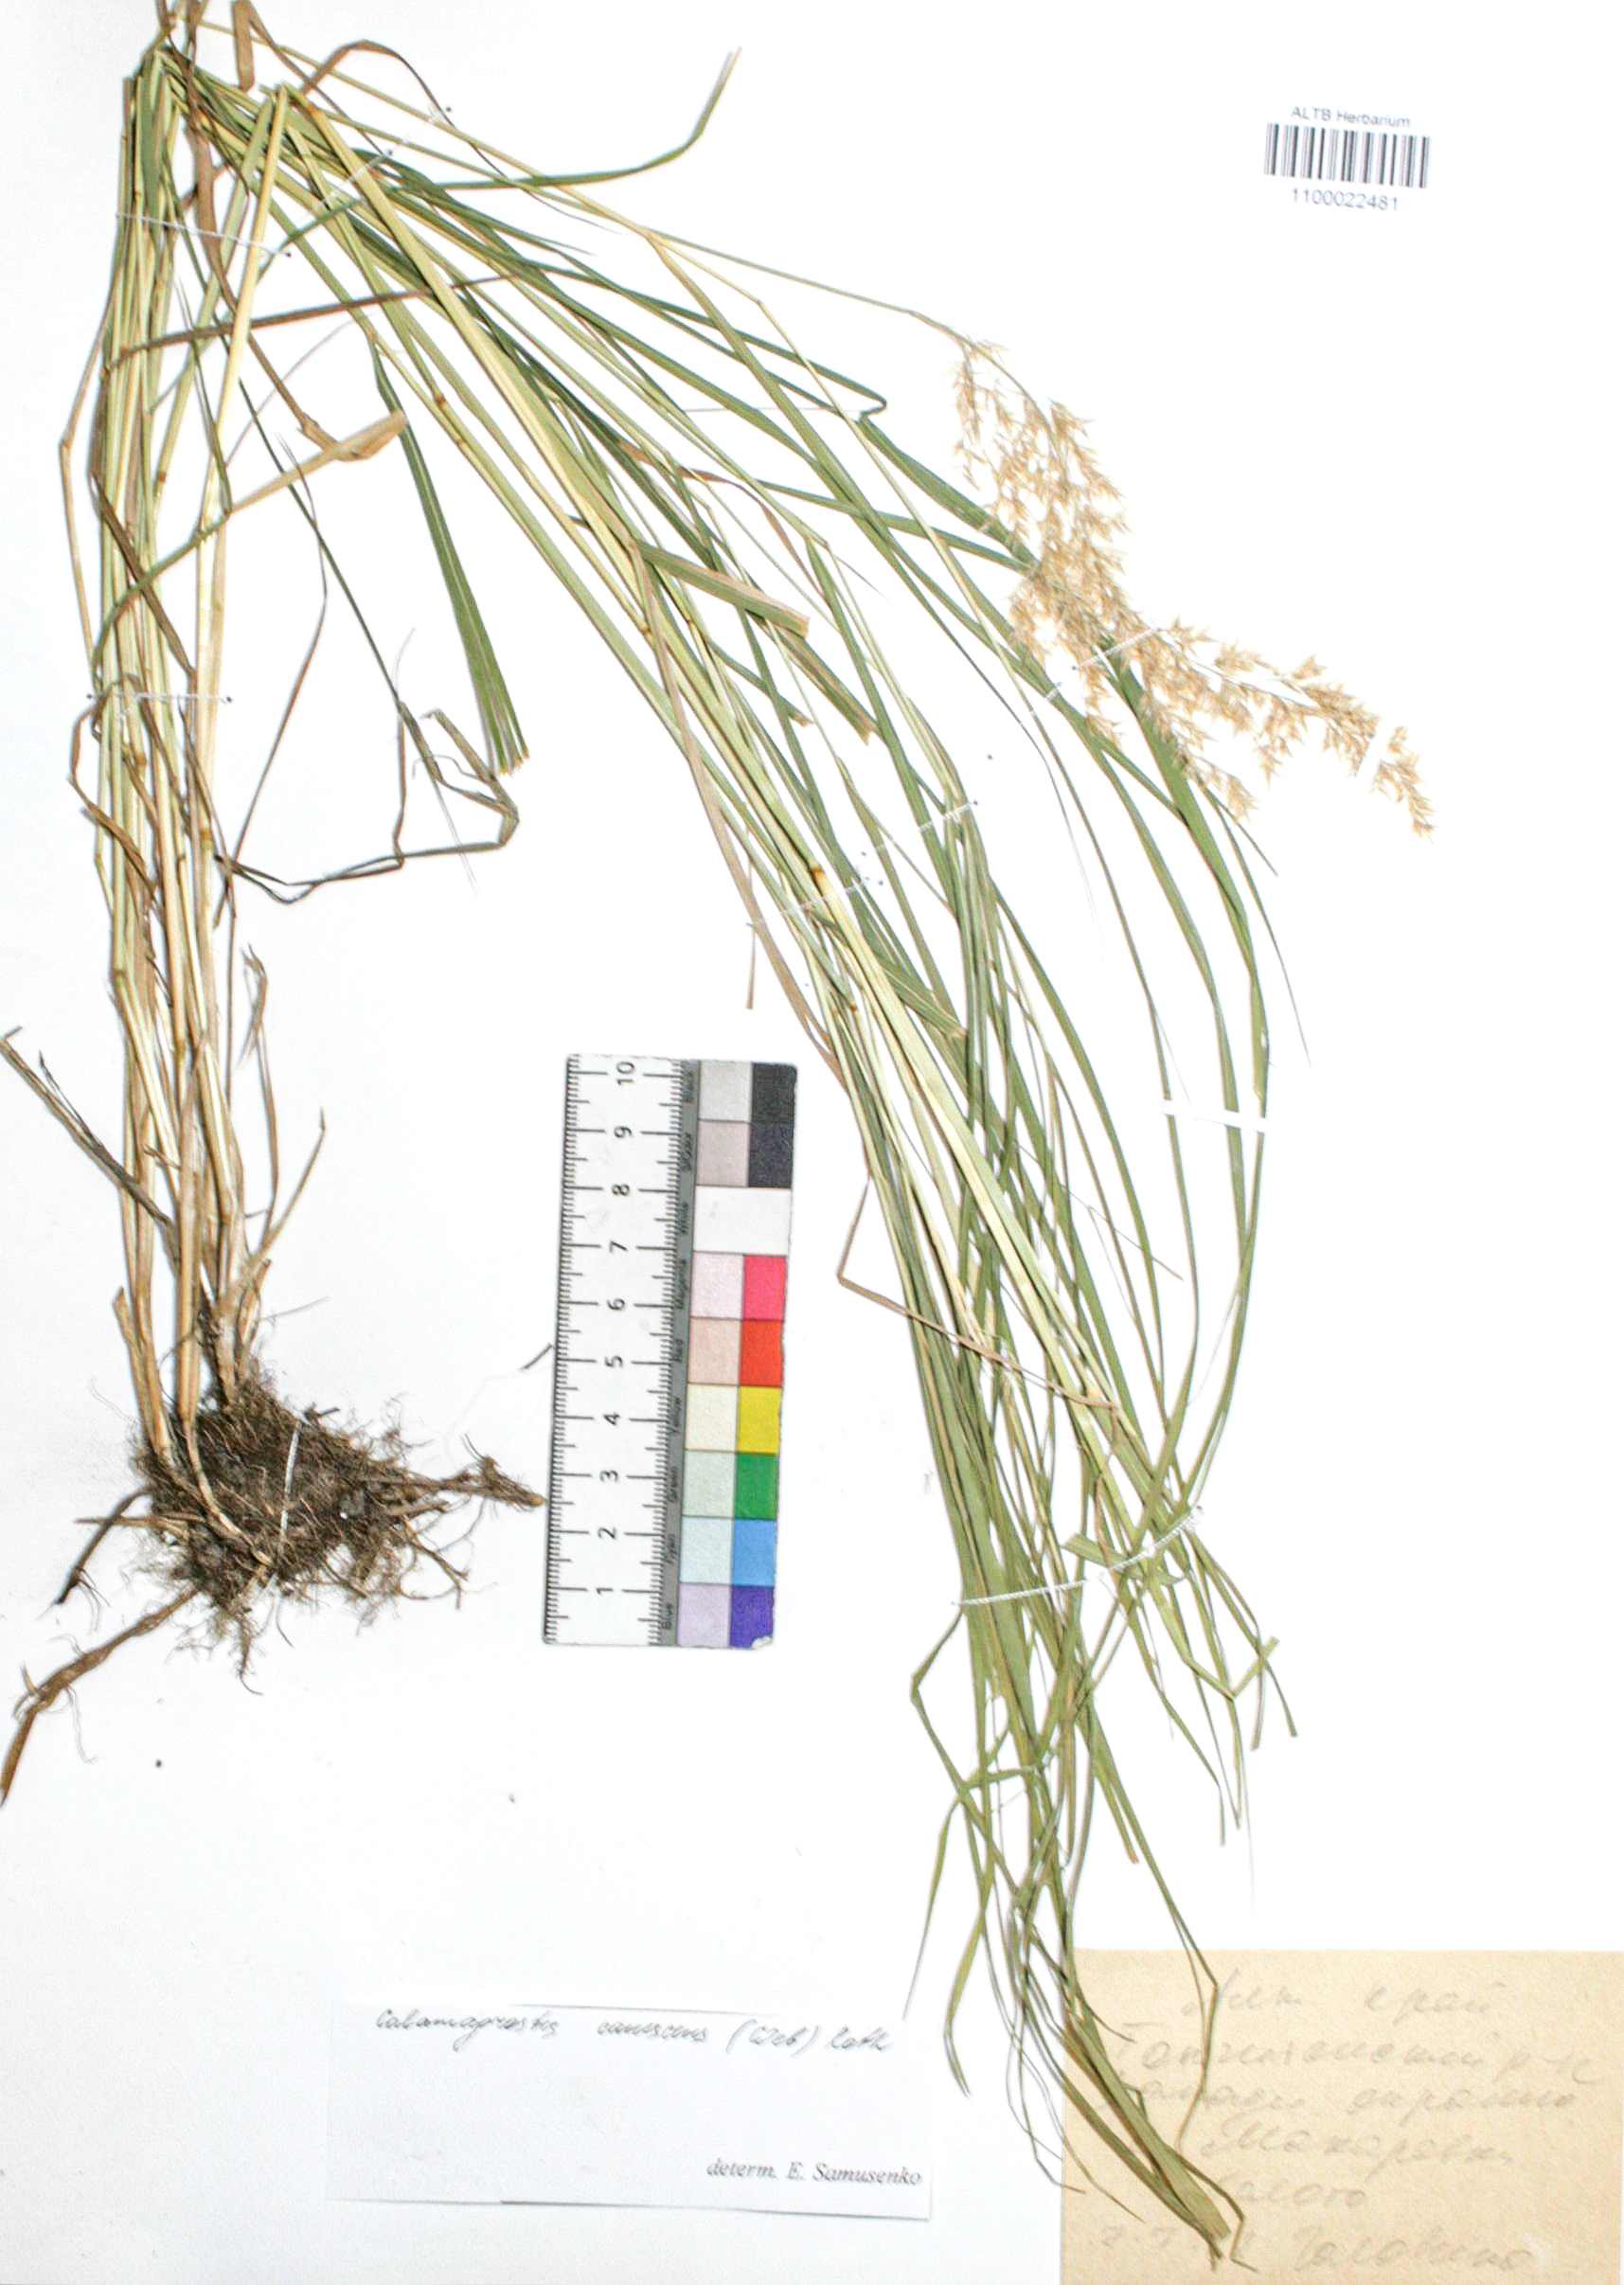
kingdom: Plantae
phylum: Tracheophyta
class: Liliopsida
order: Poales
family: Poaceae
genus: Calamagrostis
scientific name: Calamagrostis canescens
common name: Purple small-reed
